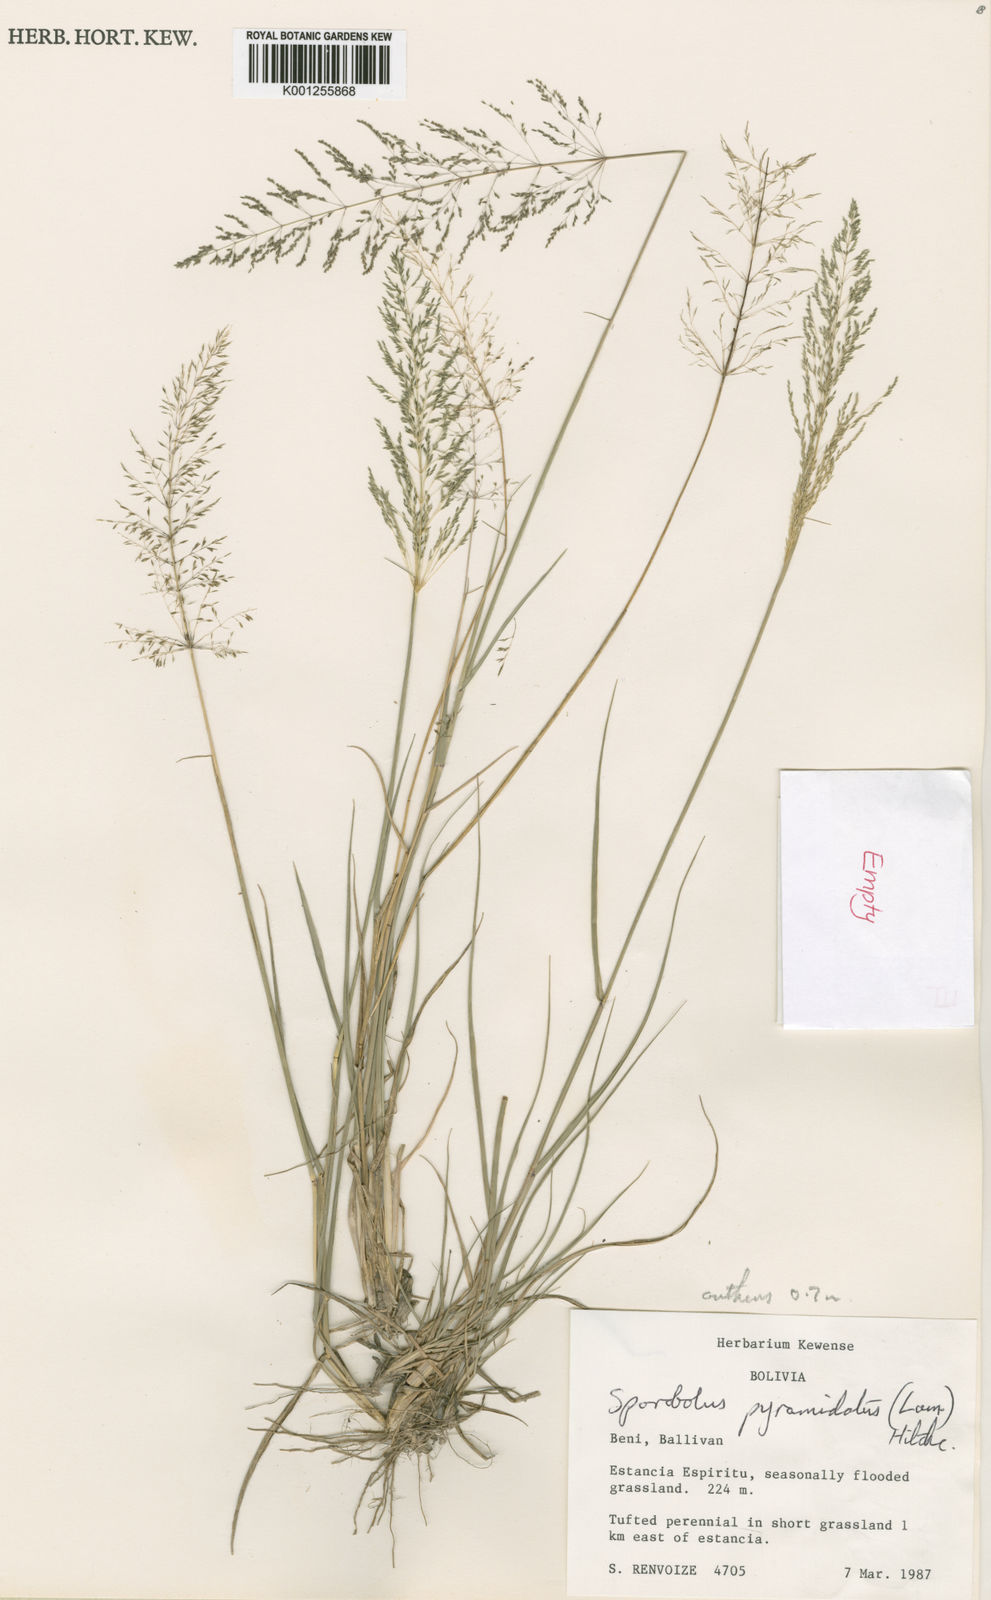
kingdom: Plantae
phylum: Tracheophyta
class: Liliopsida
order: Poales
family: Poaceae
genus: Sporobolus
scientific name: Sporobolus pyramidatus
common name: Whorled dropseed
